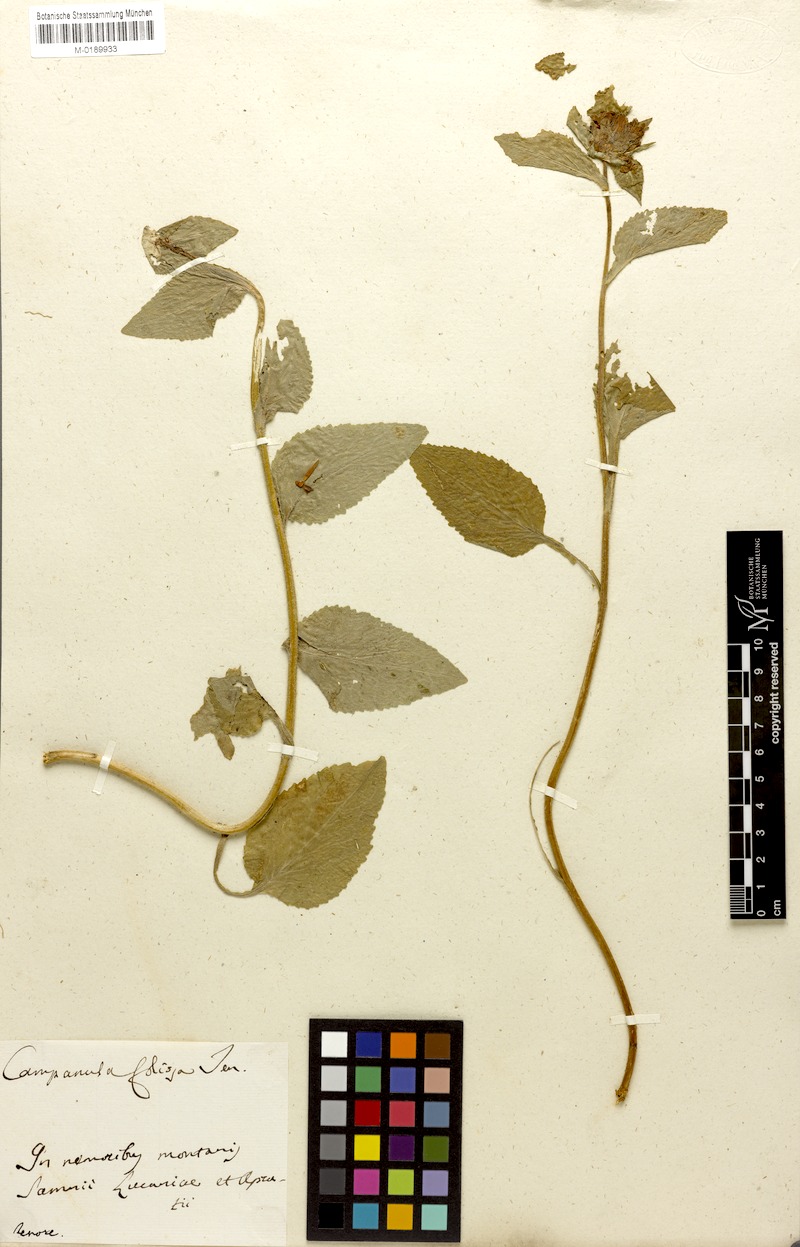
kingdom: Plantae
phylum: Tracheophyta
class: Magnoliopsida
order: Asterales
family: Campanulaceae
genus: Campanula
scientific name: Campanula foliosa
